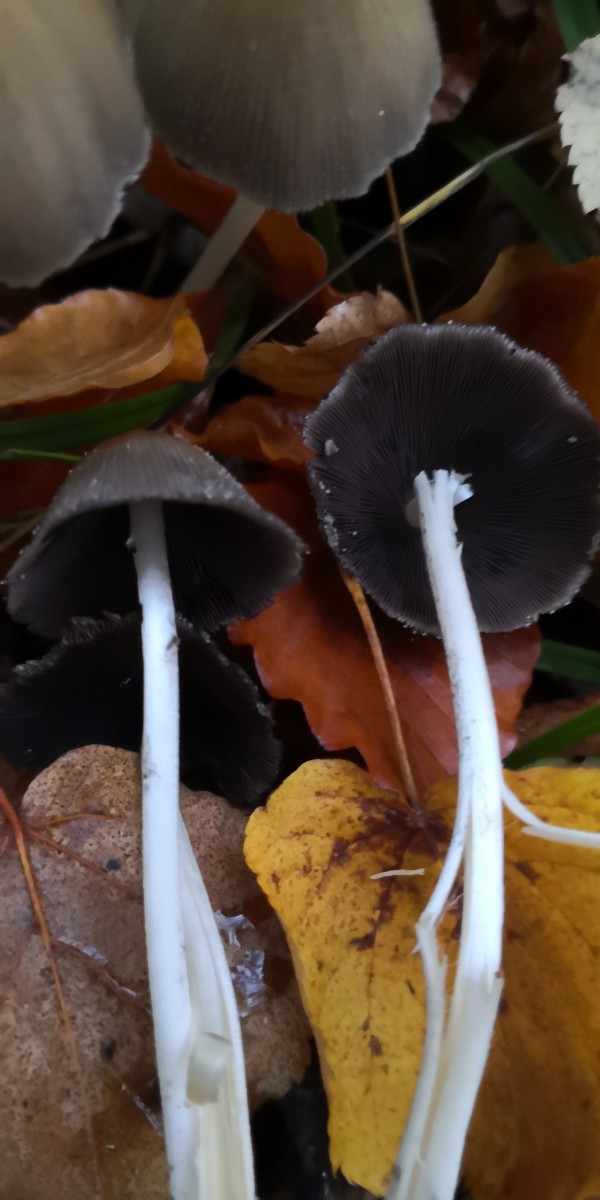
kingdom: Fungi
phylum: Basidiomycota
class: Agaricomycetes
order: Agaricales
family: Psathyrellaceae
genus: Coprinellus
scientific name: Coprinellus
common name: blækhat
